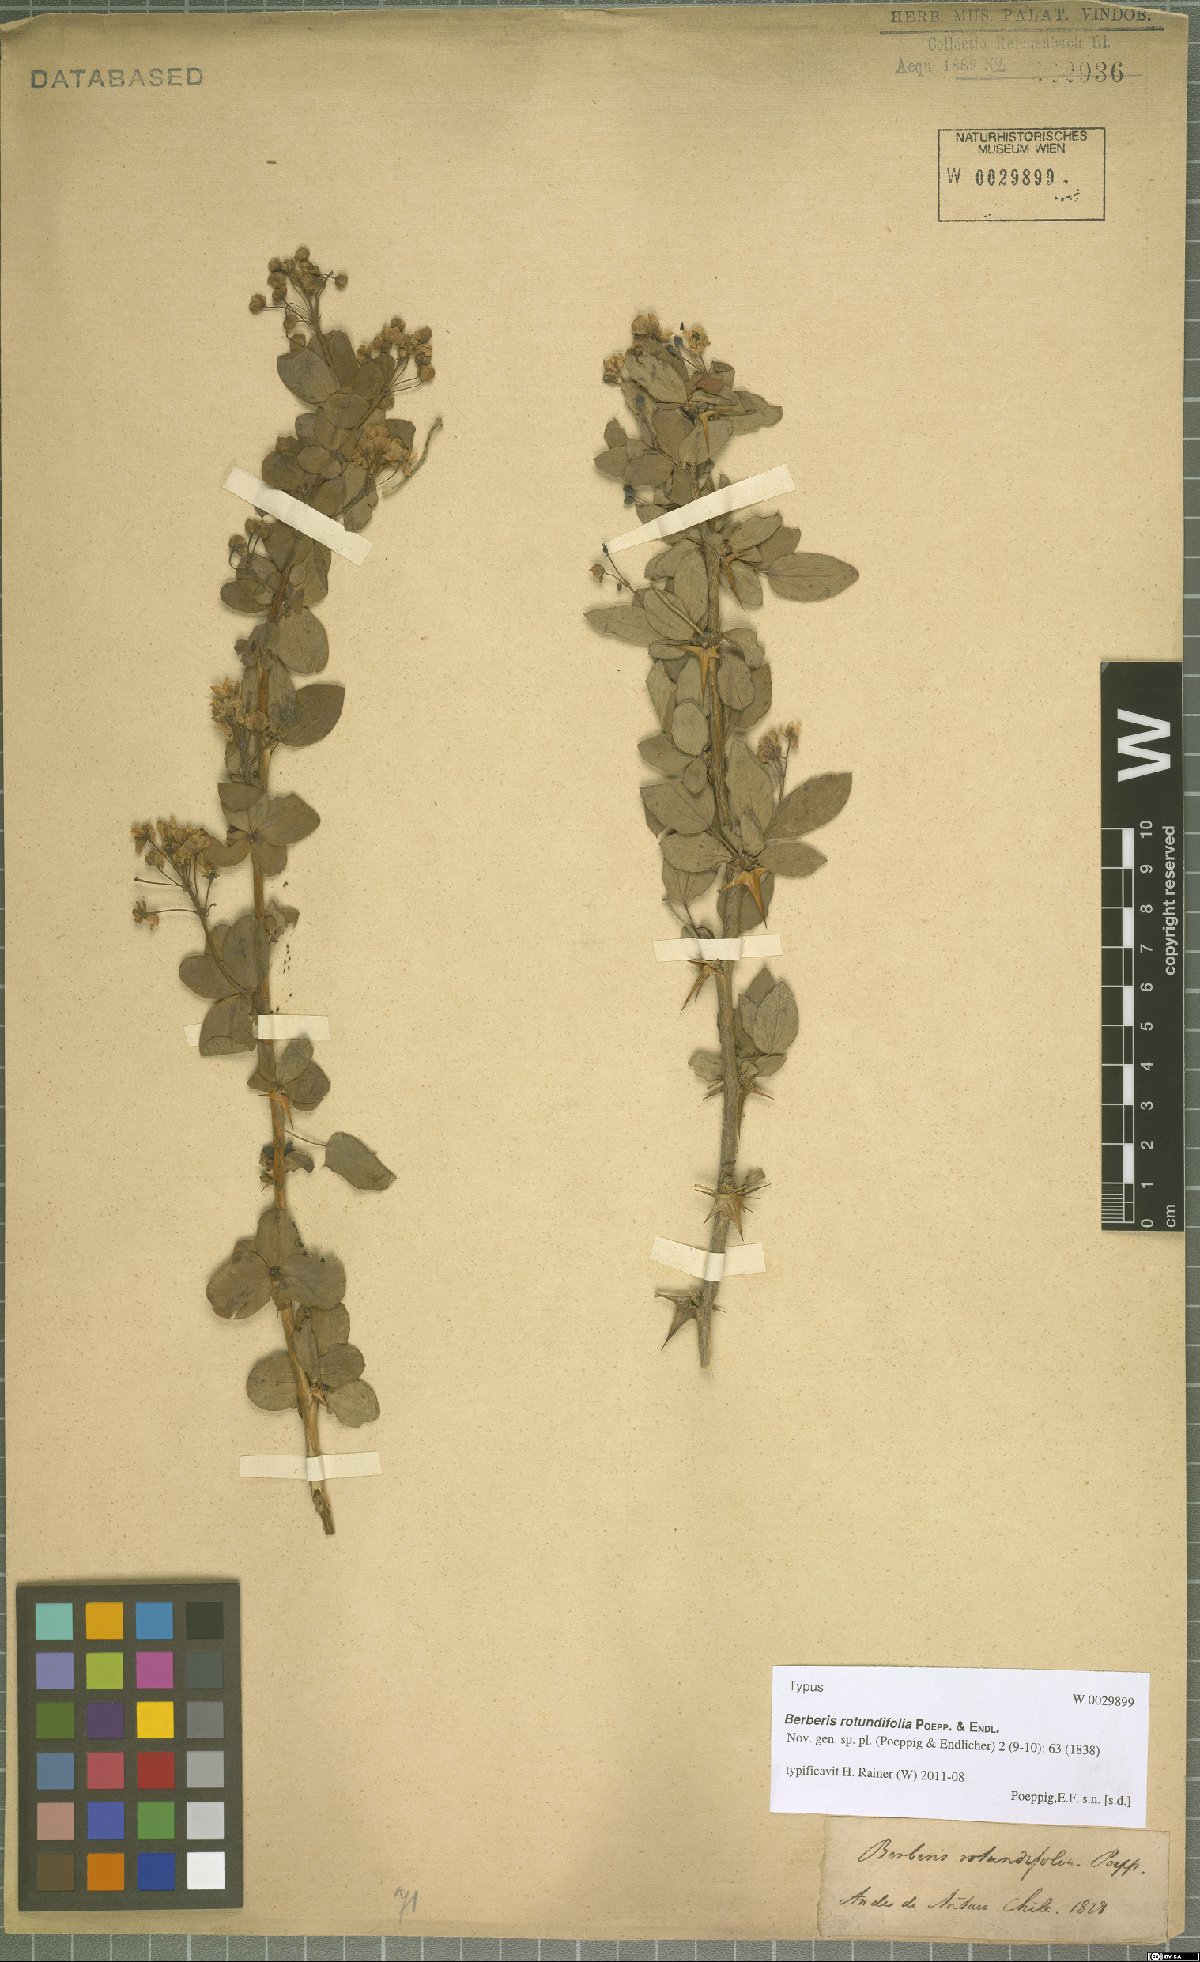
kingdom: Plantae
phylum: Tracheophyta
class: Magnoliopsida
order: Ranunculales
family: Berberidaceae
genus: Berberis
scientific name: Berberis rotundifolia
